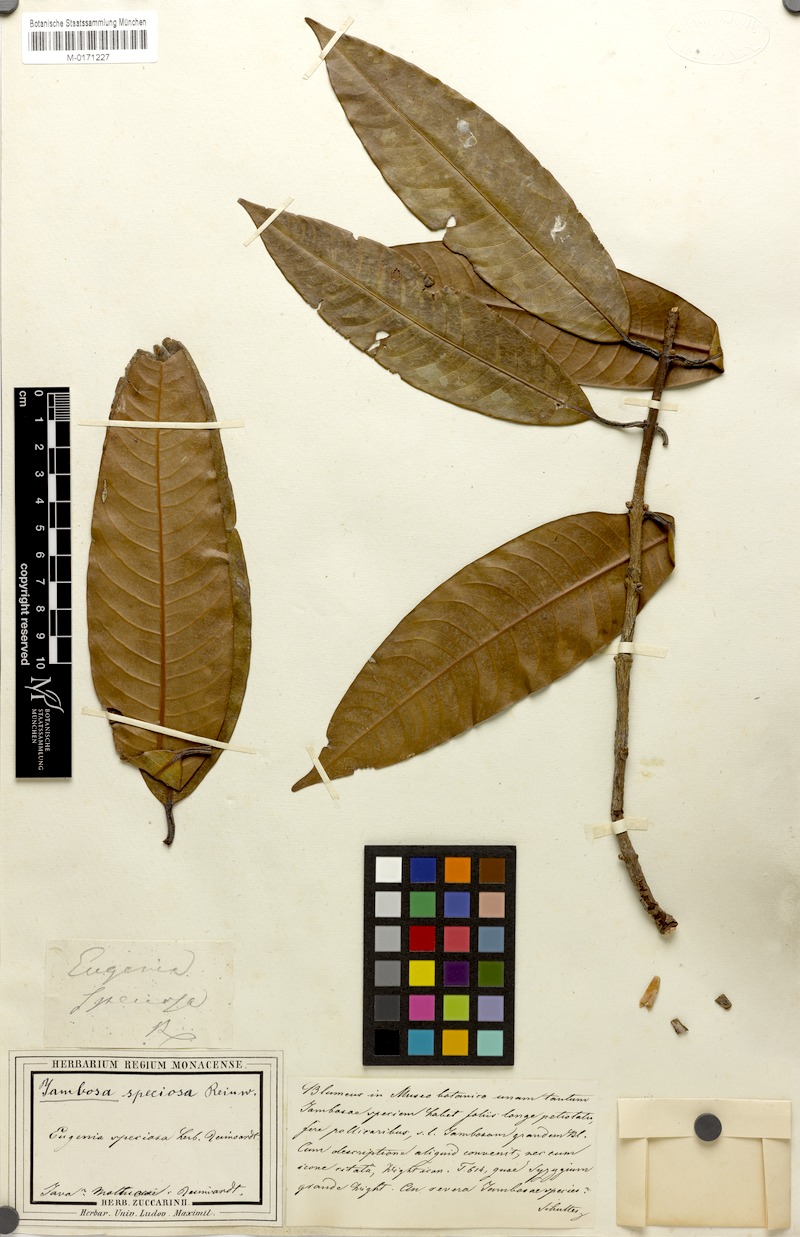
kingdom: Plantae
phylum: Tracheophyta
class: Magnoliopsida
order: Myrtales
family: Myrtaceae
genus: Syzygium
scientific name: Syzygium
